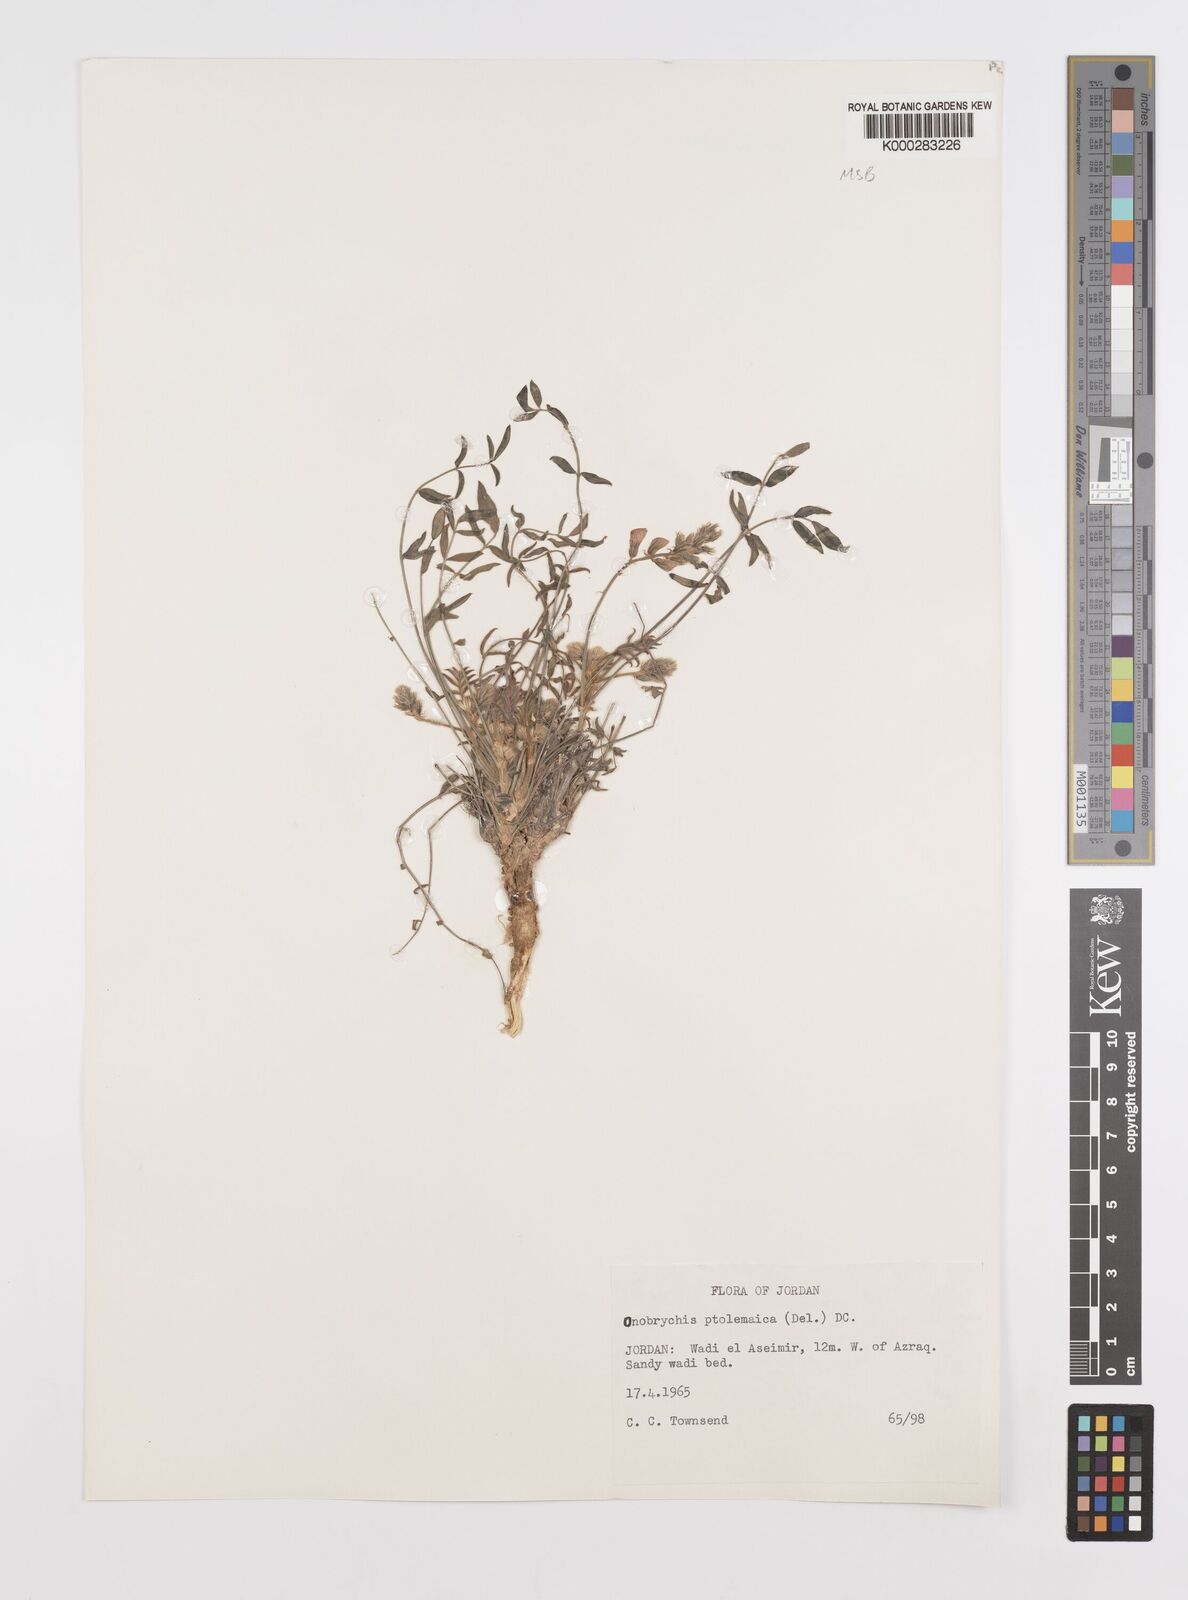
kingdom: Plantae
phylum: Tracheophyta
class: Magnoliopsida
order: Fabales
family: Fabaceae
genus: Onobrychis
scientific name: Onobrychis ptolemaica
